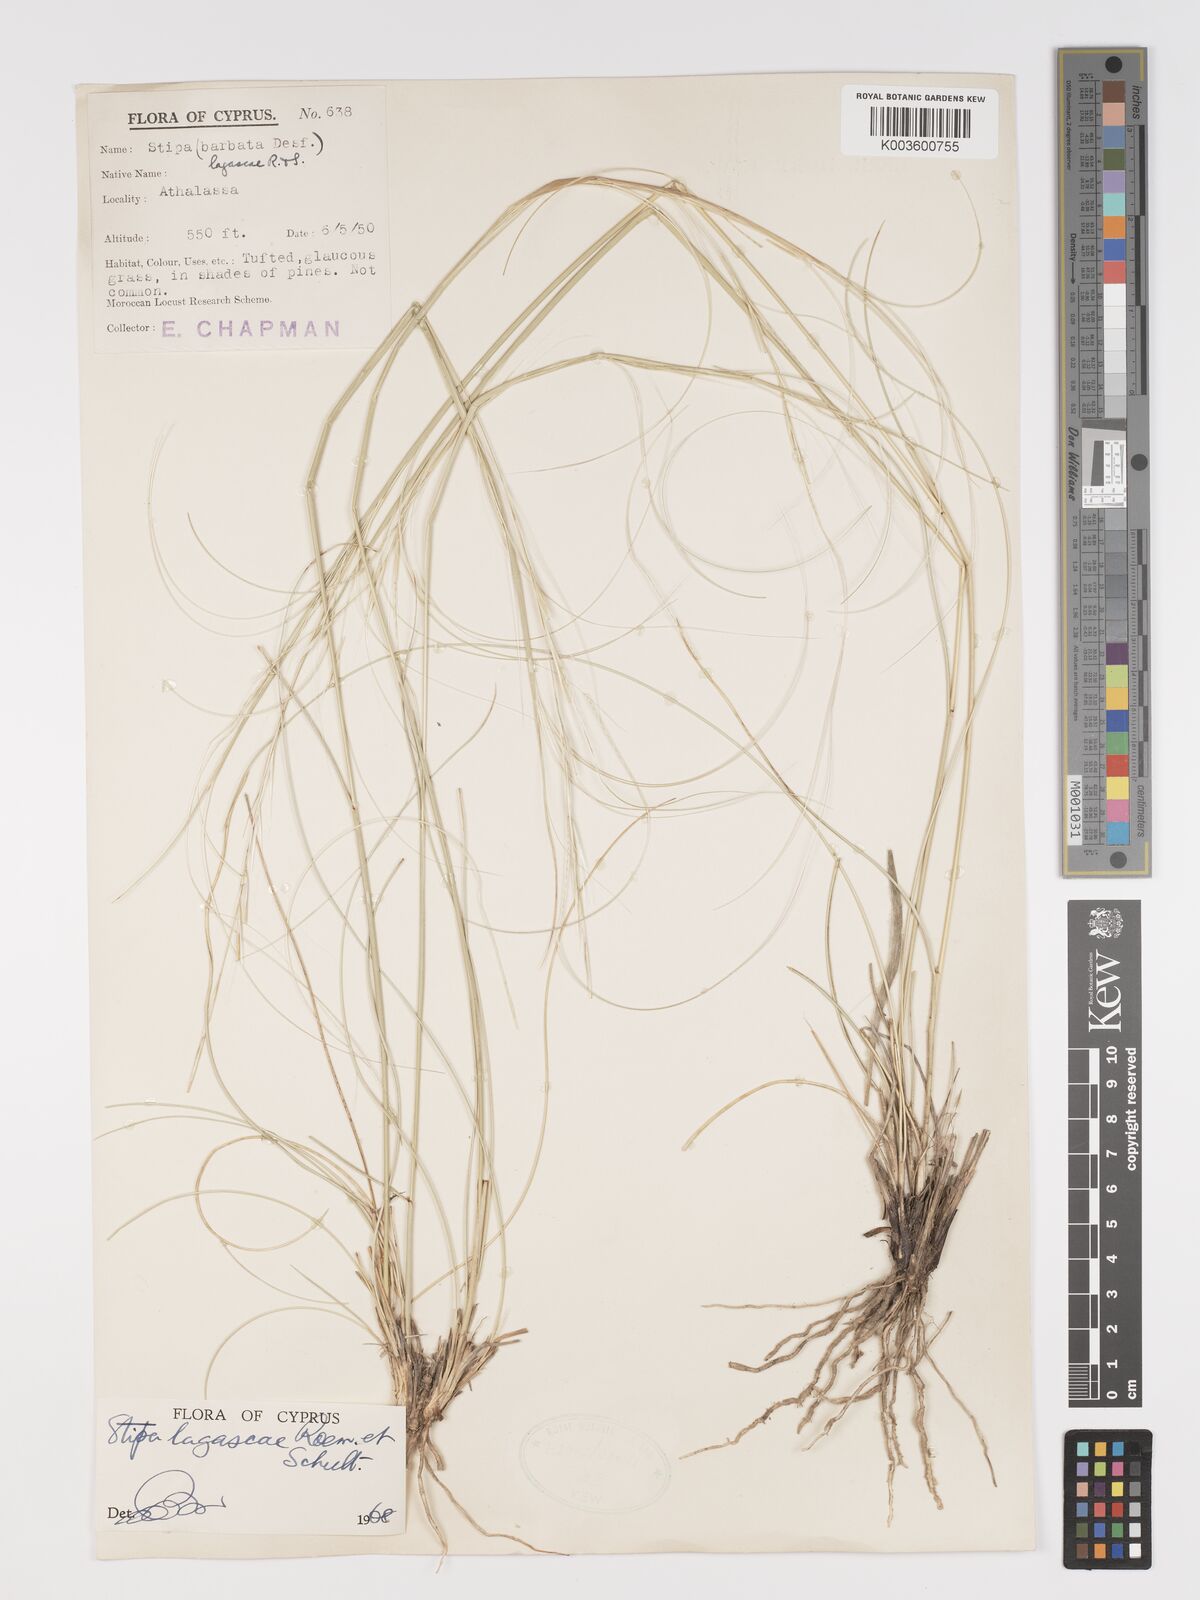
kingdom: Plantae
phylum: Tracheophyta
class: Liliopsida
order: Poales
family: Poaceae
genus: Stipa
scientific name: Stipa lagascae
